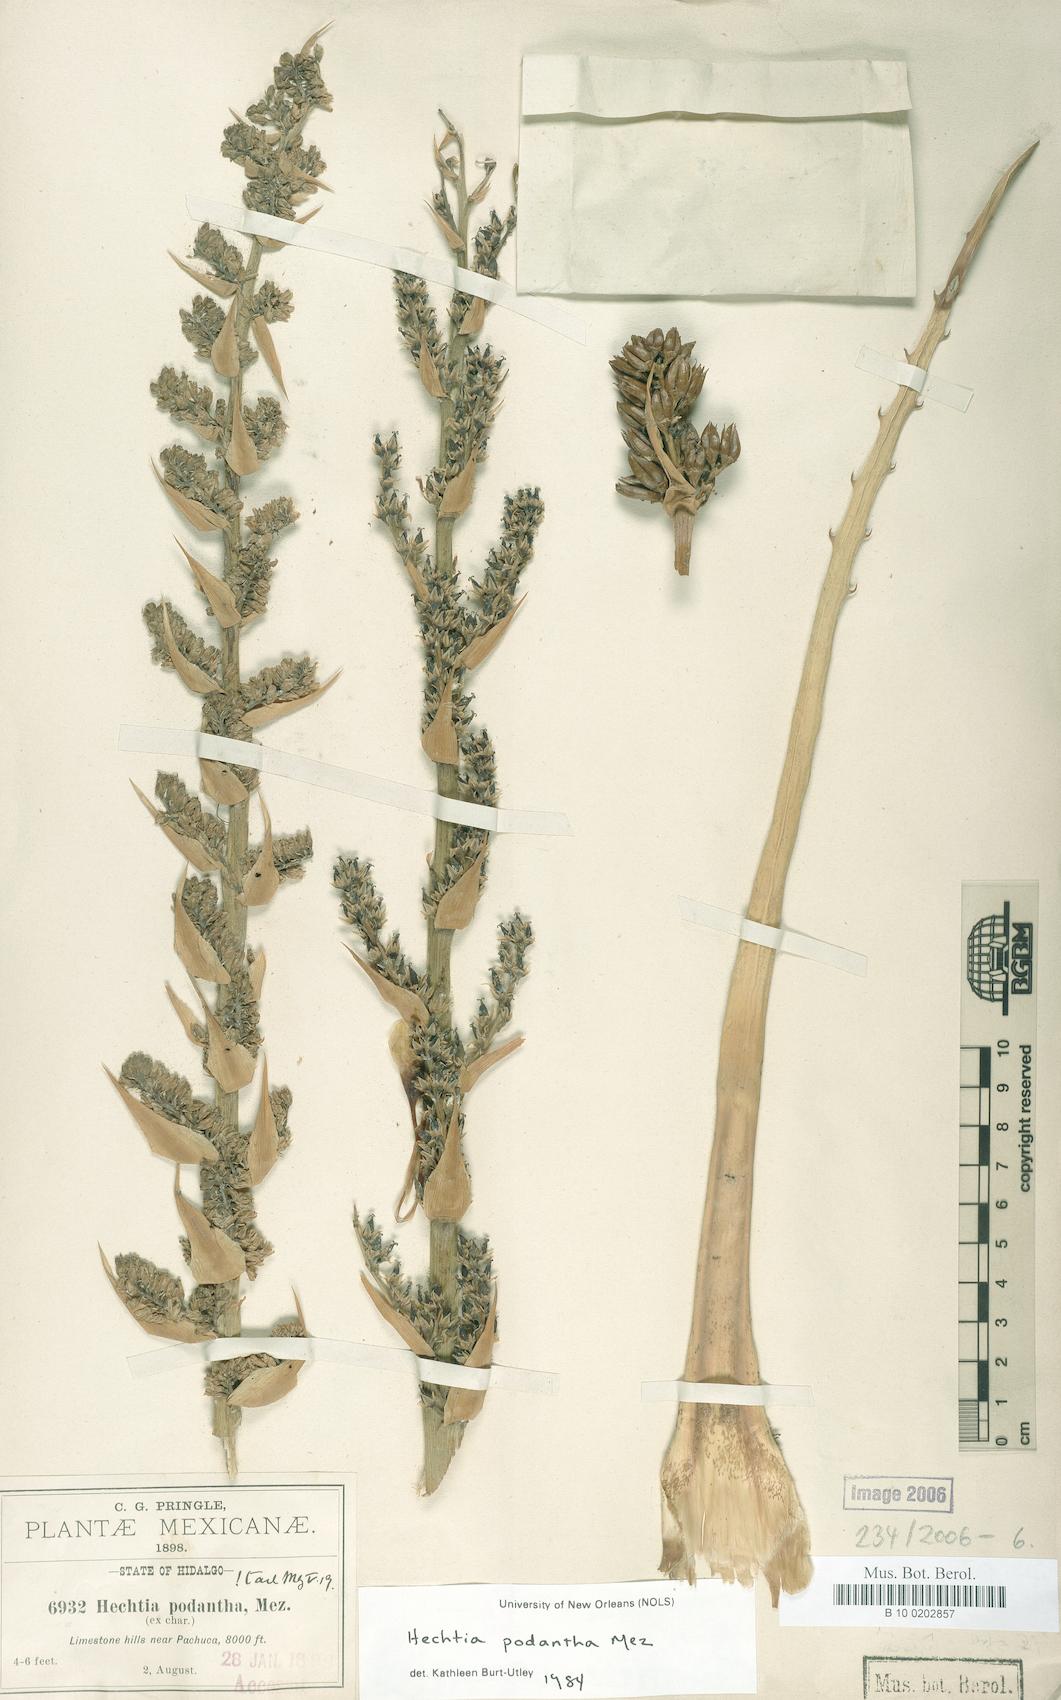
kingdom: Plantae
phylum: Tracheophyta
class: Liliopsida
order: Poales
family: Bromeliaceae
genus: Hechtia
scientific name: Hechtia podantha
